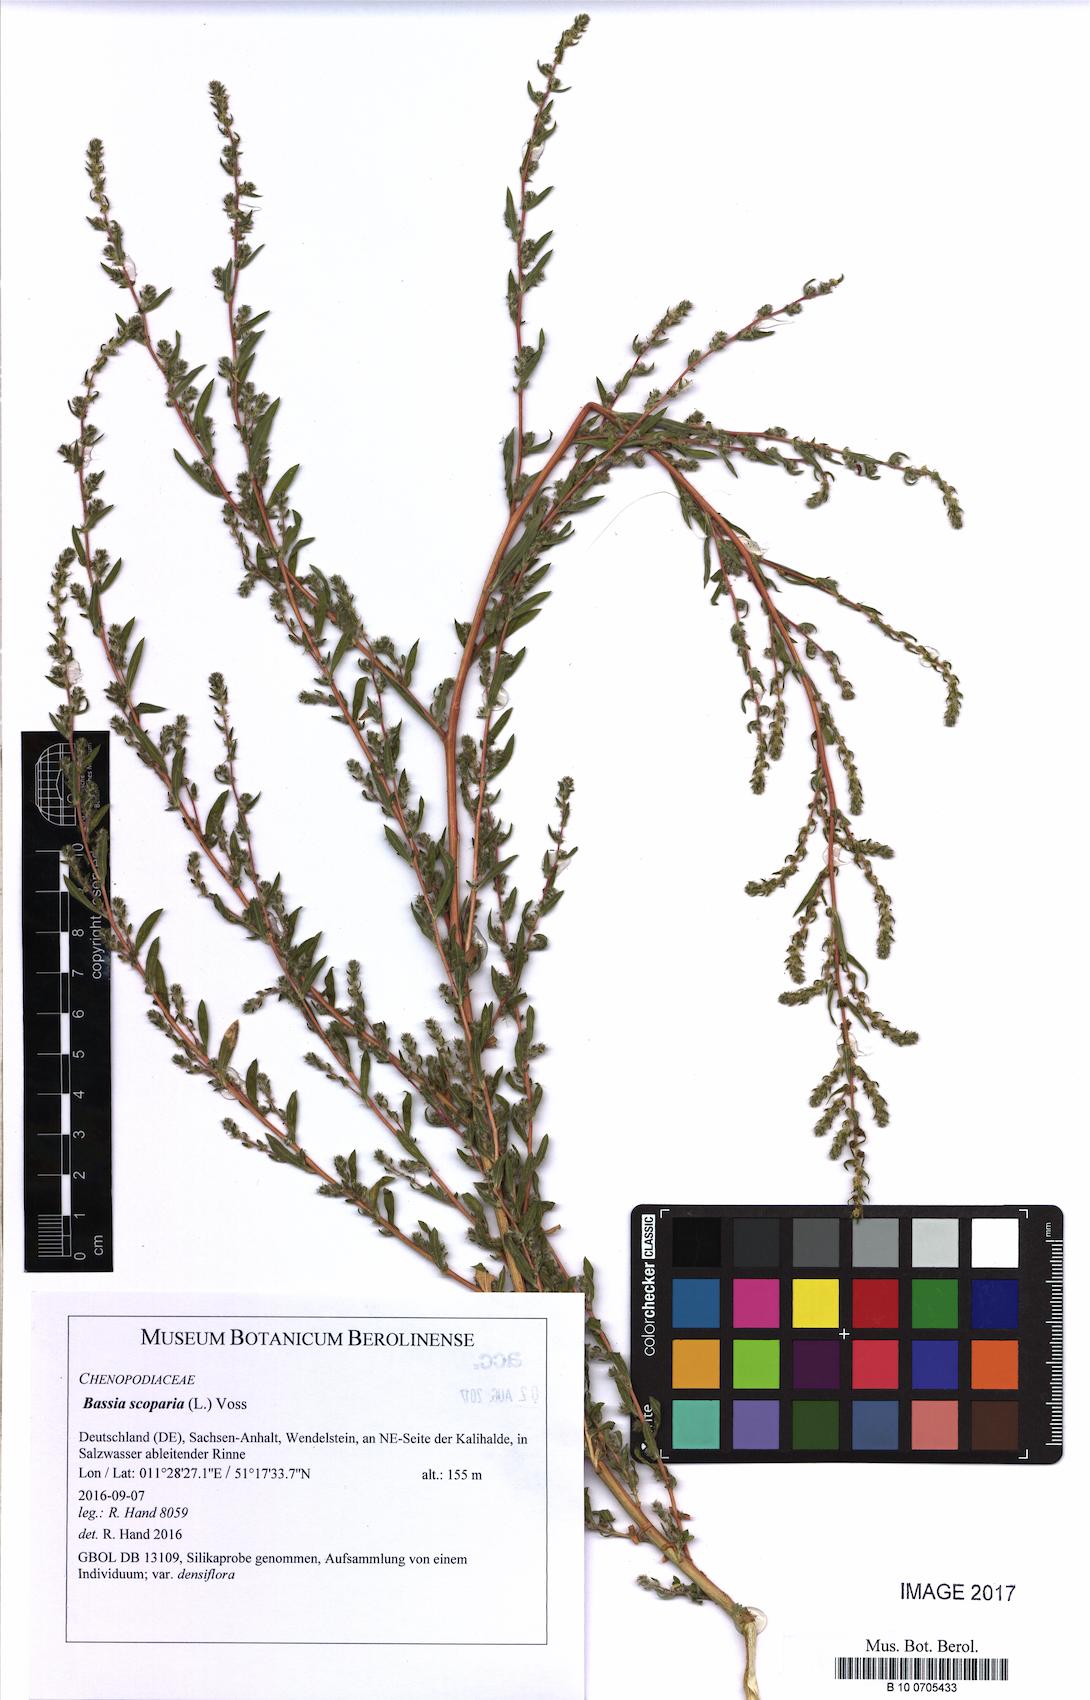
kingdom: Plantae
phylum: Tracheophyta
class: Magnoliopsida
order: Caryophyllales
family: Amaranthaceae
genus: Bassia
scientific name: Bassia scoparia
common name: Belvedere
